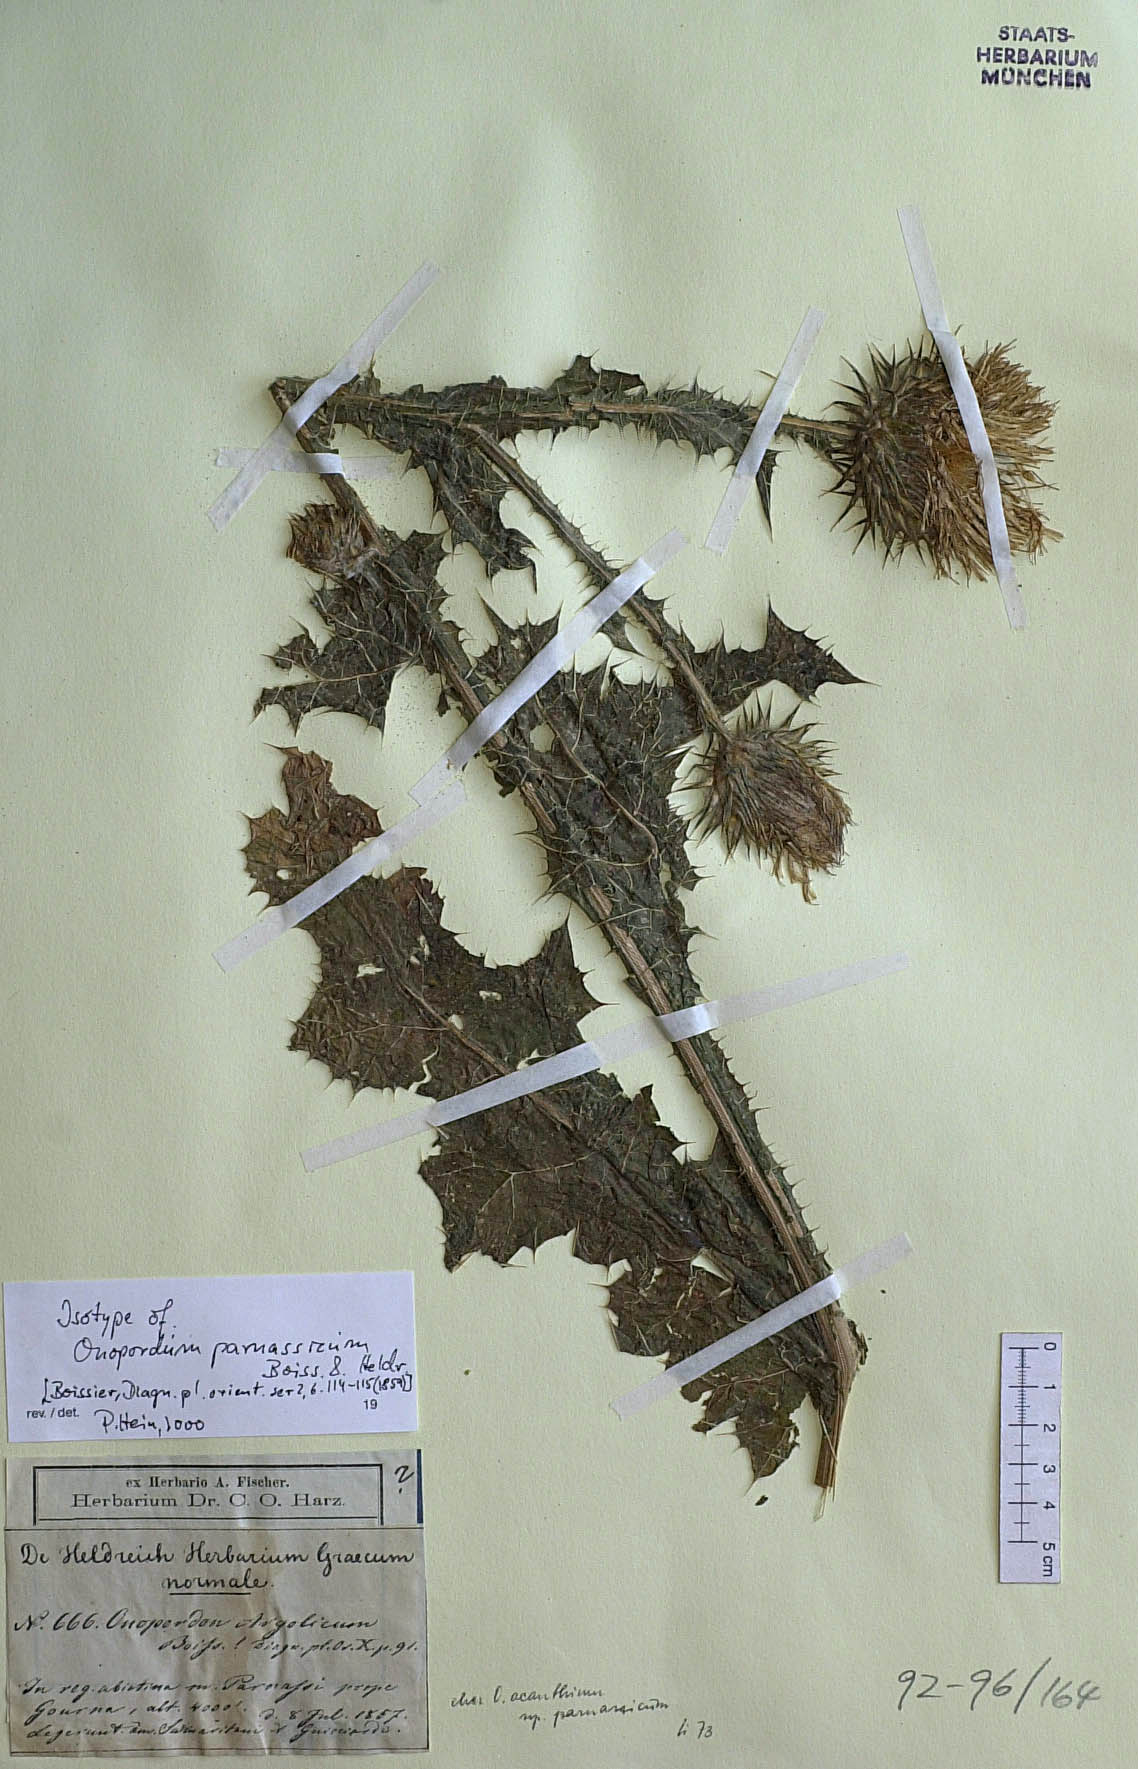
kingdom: Plantae
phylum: Tracheophyta
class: Magnoliopsida
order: Asterales
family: Asteraceae
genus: Onopordum
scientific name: Onopordum acanthium
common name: Scotch thistle
